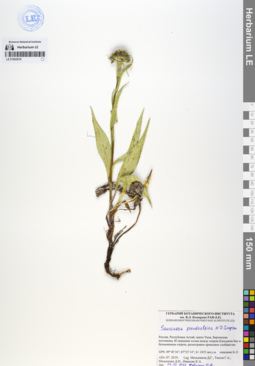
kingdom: Plantae
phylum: Tracheophyta
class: Magnoliopsida
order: Asterales
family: Asteraceae
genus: Saussurea
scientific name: Saussurea pseudoalpina
